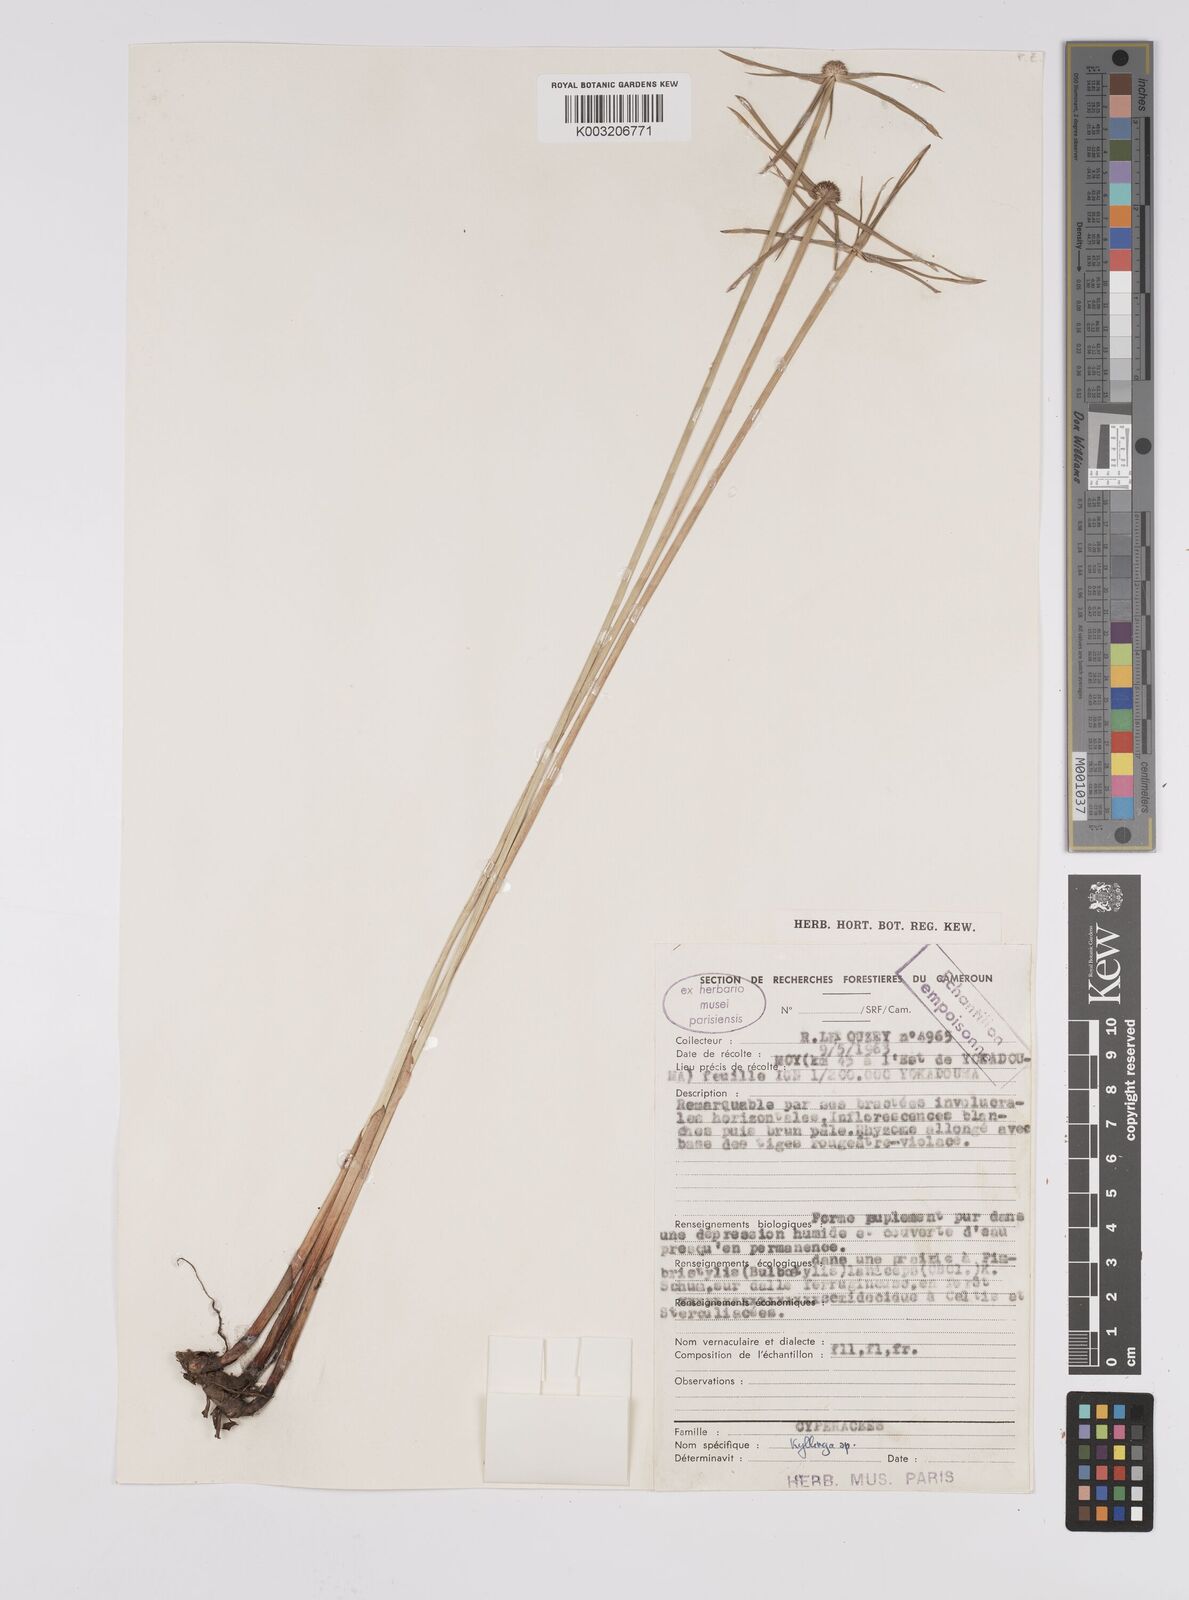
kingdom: Plantae
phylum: Tracheophyta
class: Liliopsida
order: Poales
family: Cyperaceae
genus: Cyperus
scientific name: Cyperus
